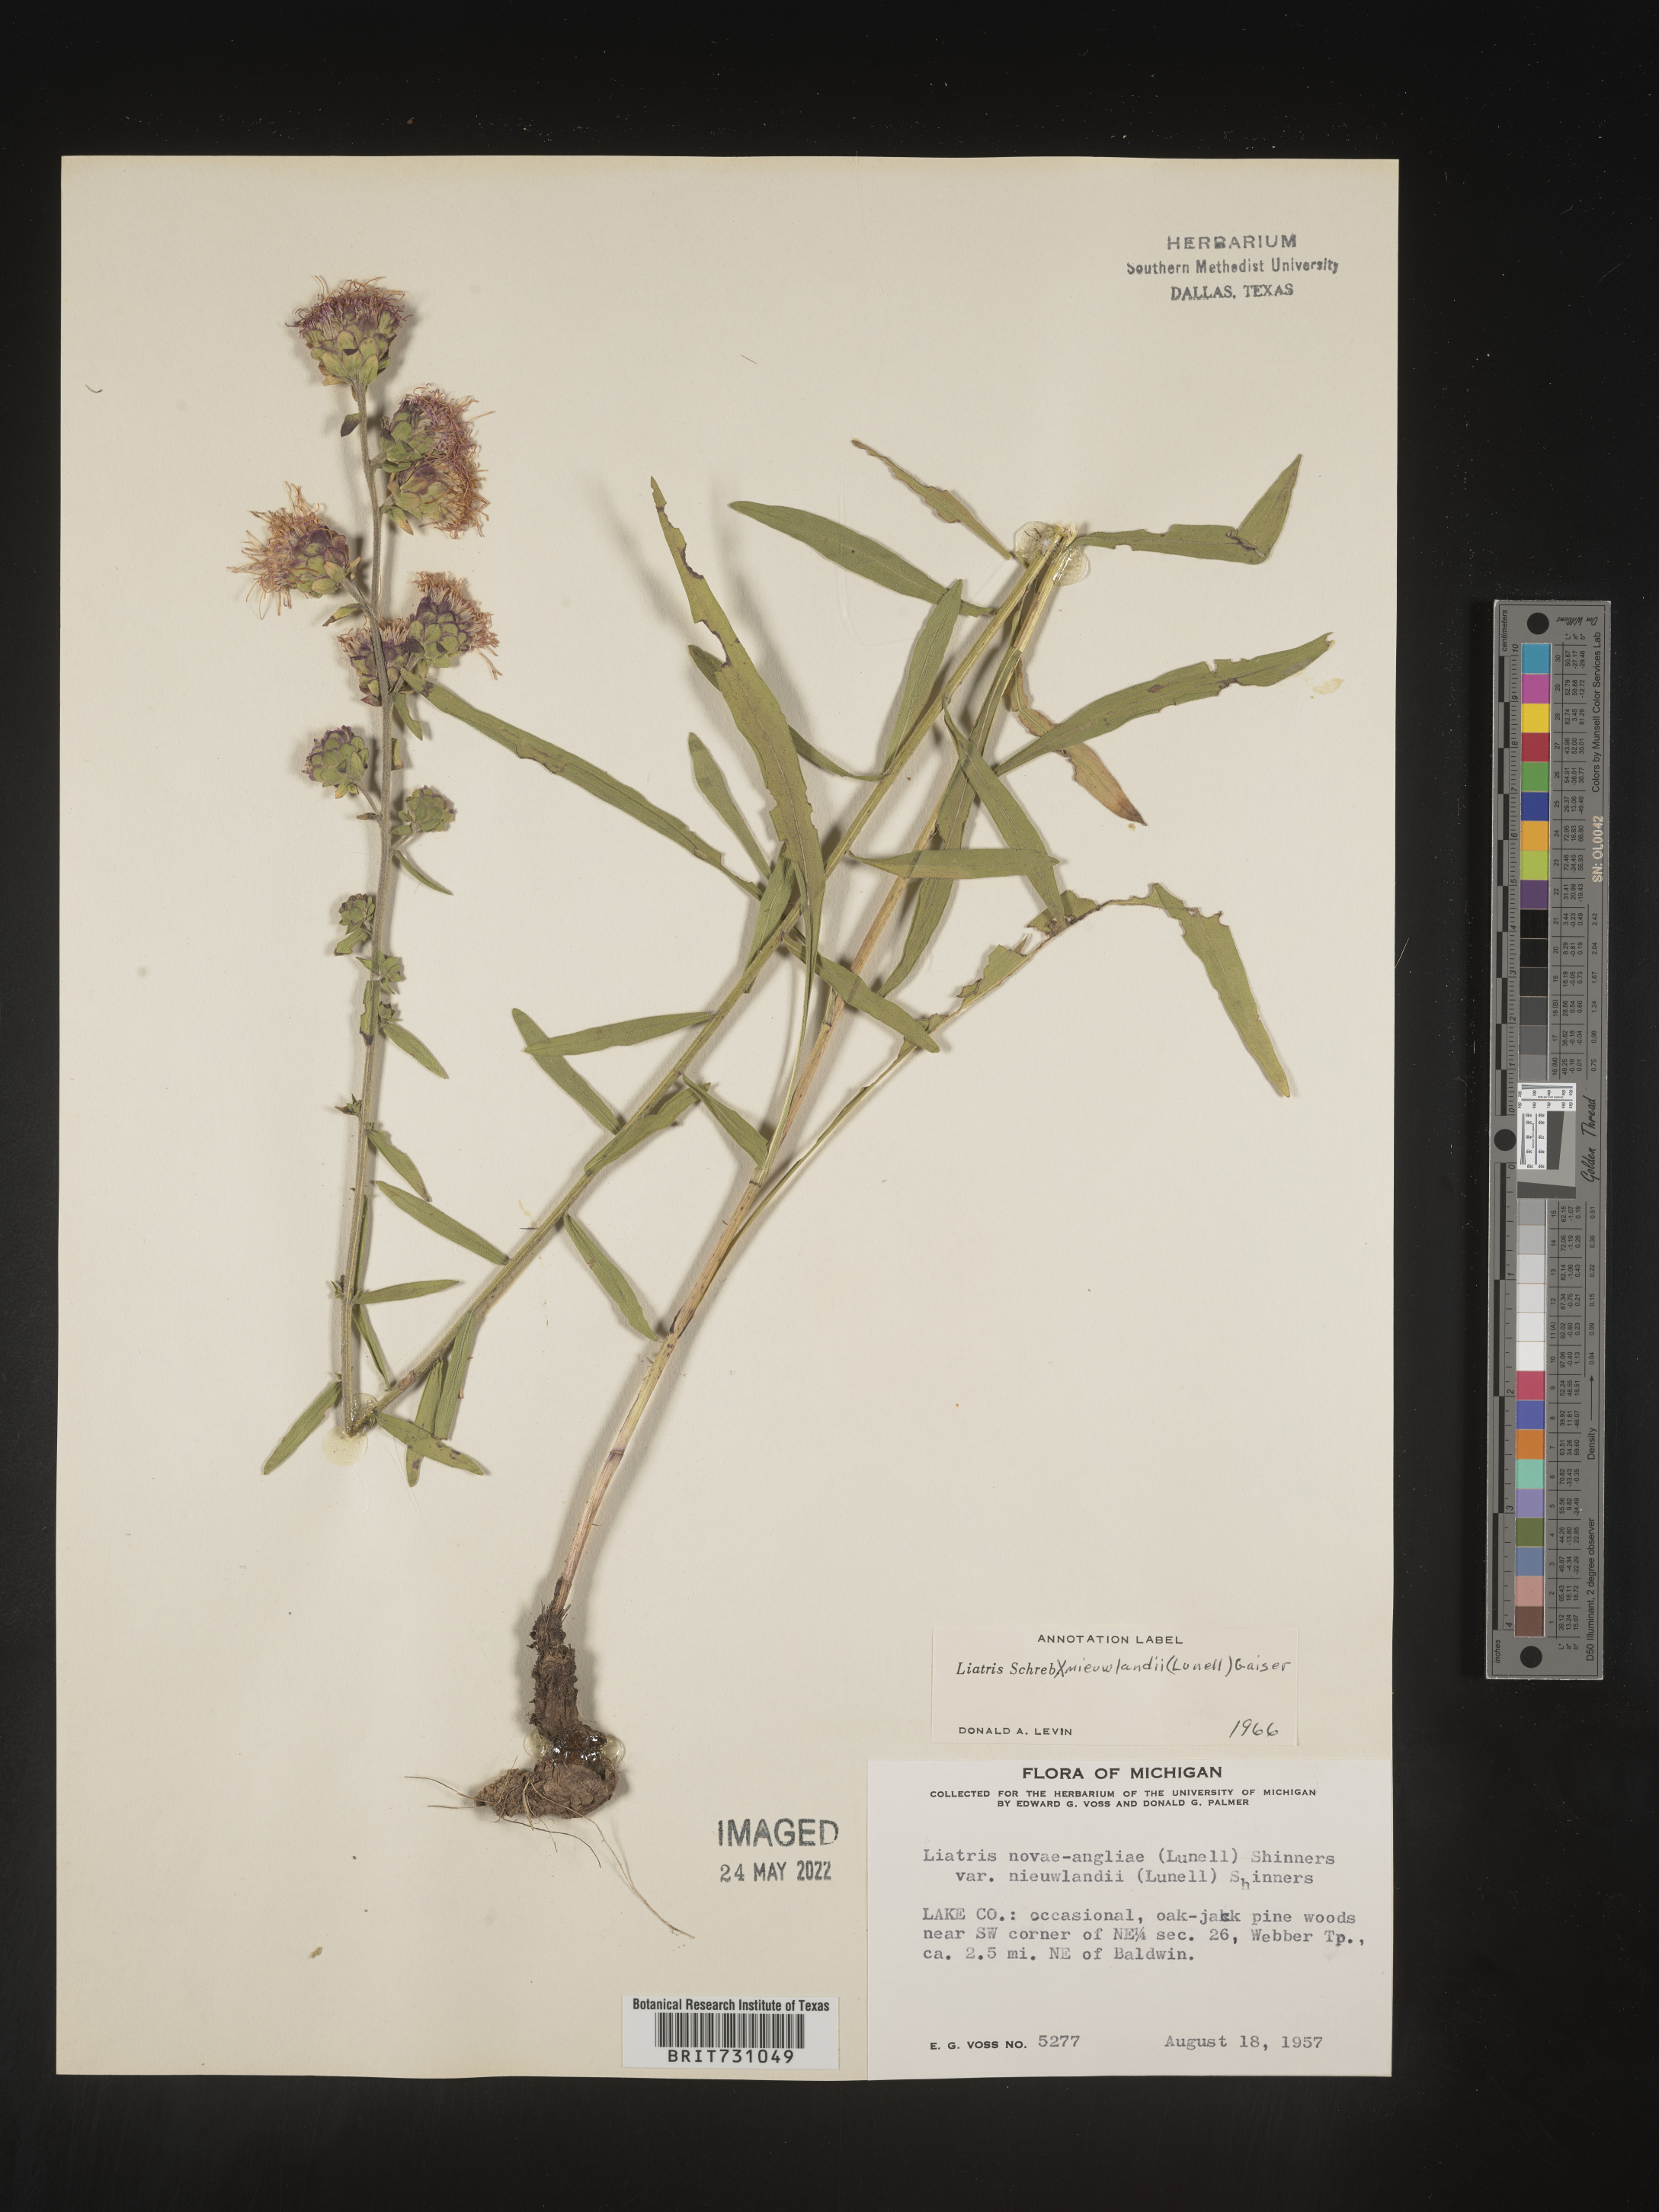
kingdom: Plantae
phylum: Tracheophyta
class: Magnoliopsida
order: Asterales
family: Asteraceae
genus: Liatris
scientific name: Liatris scariosa
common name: Northern gayfeather
